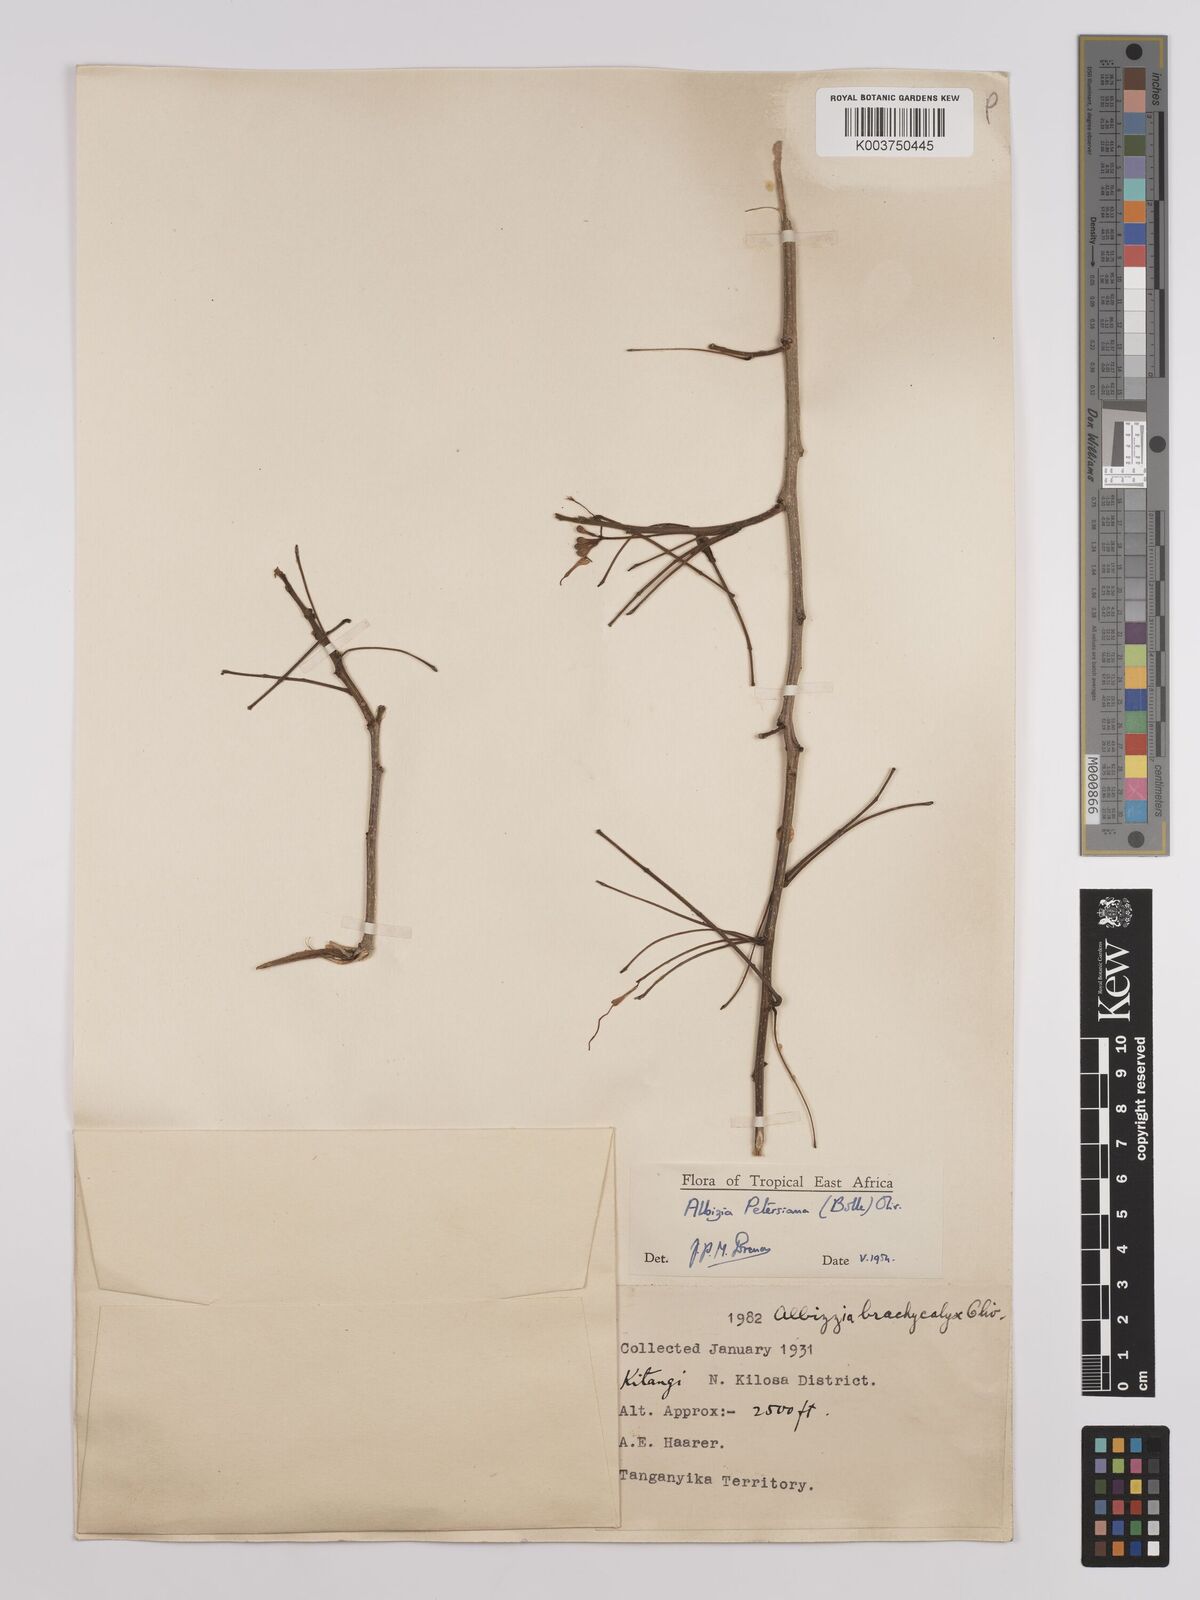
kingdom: Plantae
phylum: Tracheophyta
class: Magnoliopsida
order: Fabales
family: Fabaceae
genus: Albizia
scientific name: Albizia petersiana
